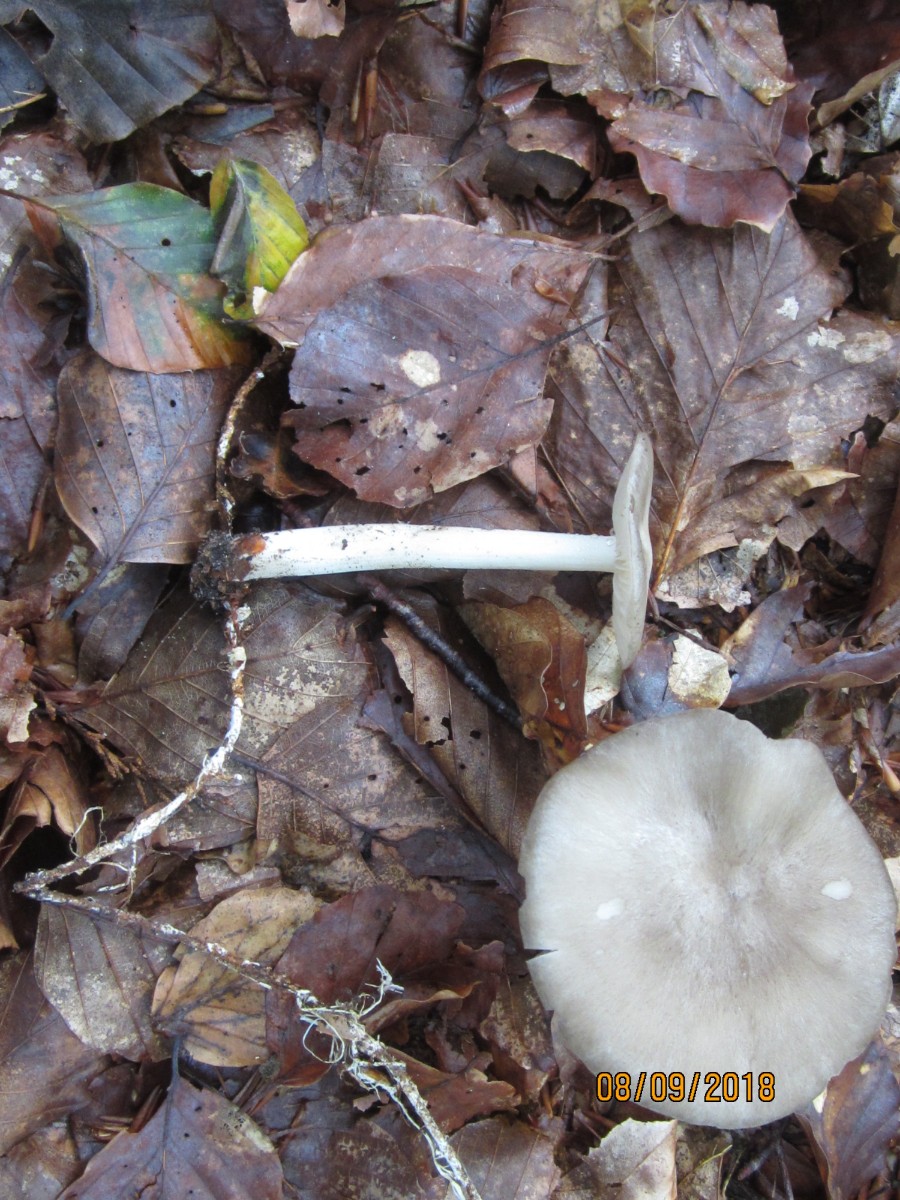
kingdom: Fungi
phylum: Basidiomycota
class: Agaricomycetes
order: Agaricales
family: Tricholomataceae
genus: Megacollybia
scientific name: Megacollybia platyphylla
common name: bredbladet væbnerhat
